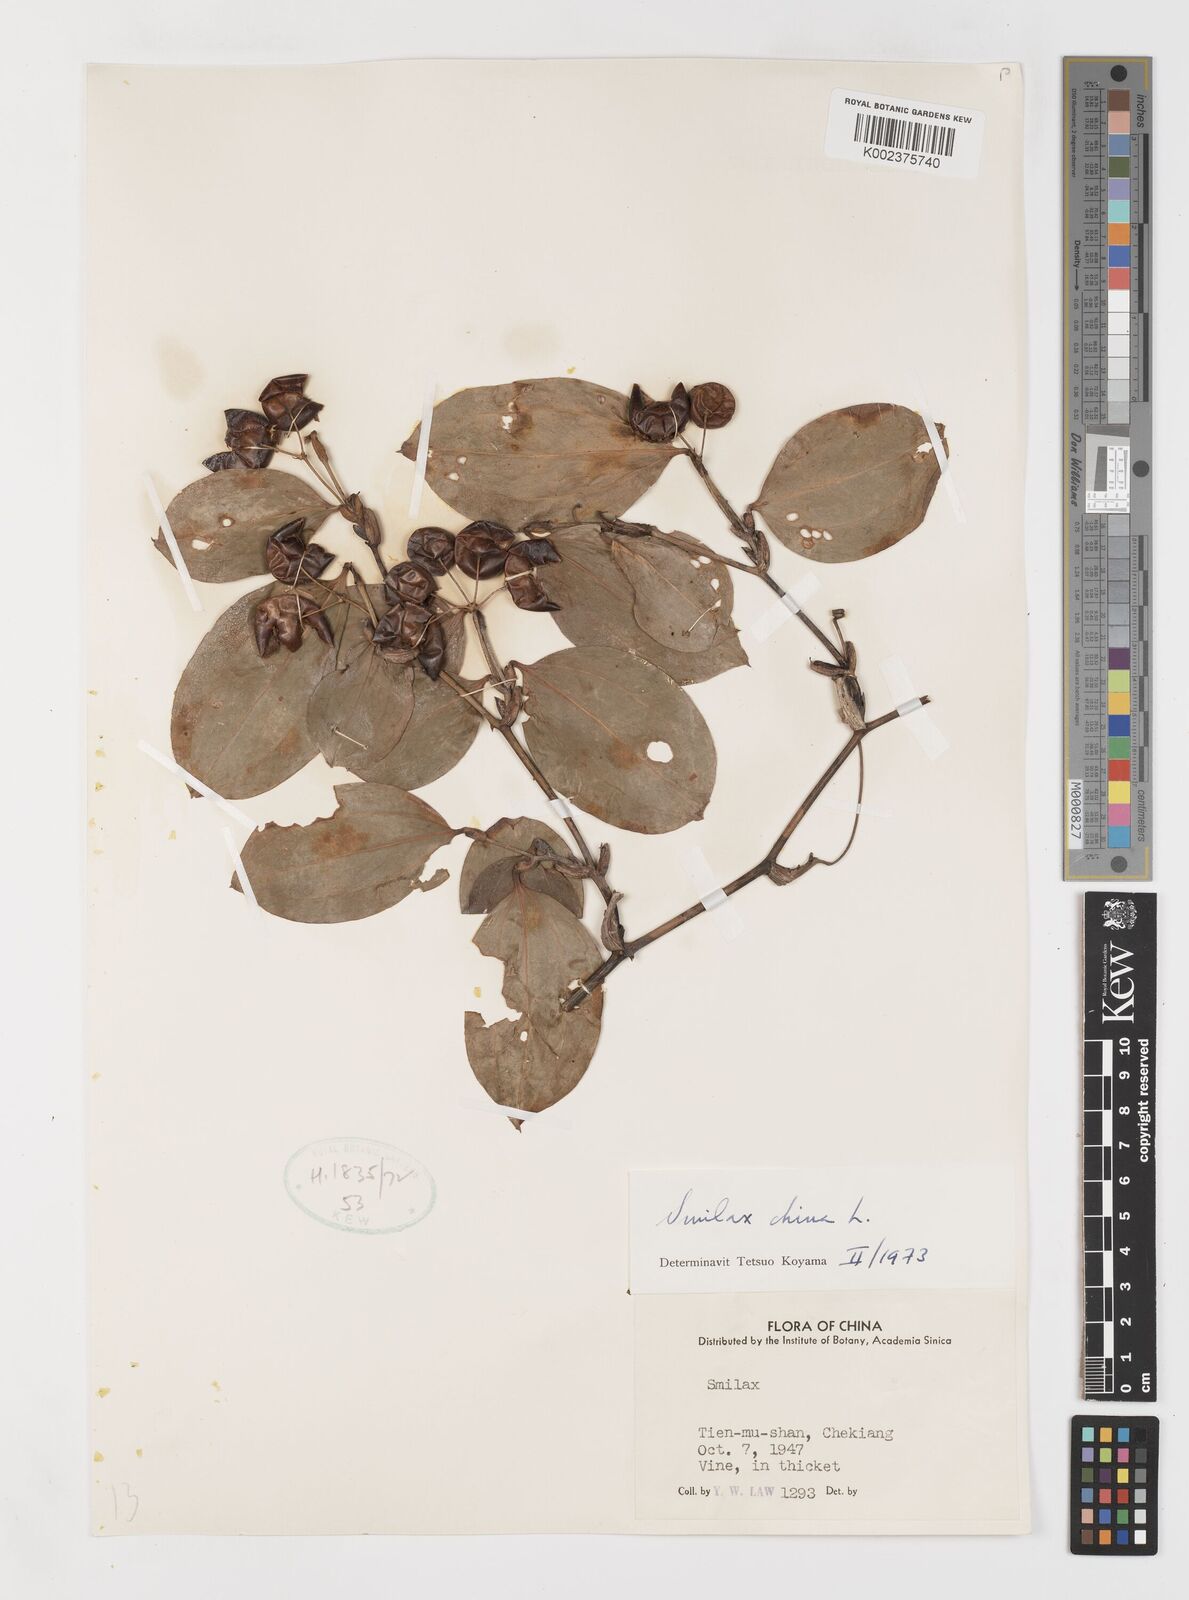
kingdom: Plantae
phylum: Tracheophyta
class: Liliopsida
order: Liliales
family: Smilacaceae
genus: Smilax
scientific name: Smilax china
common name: Chinaroot
